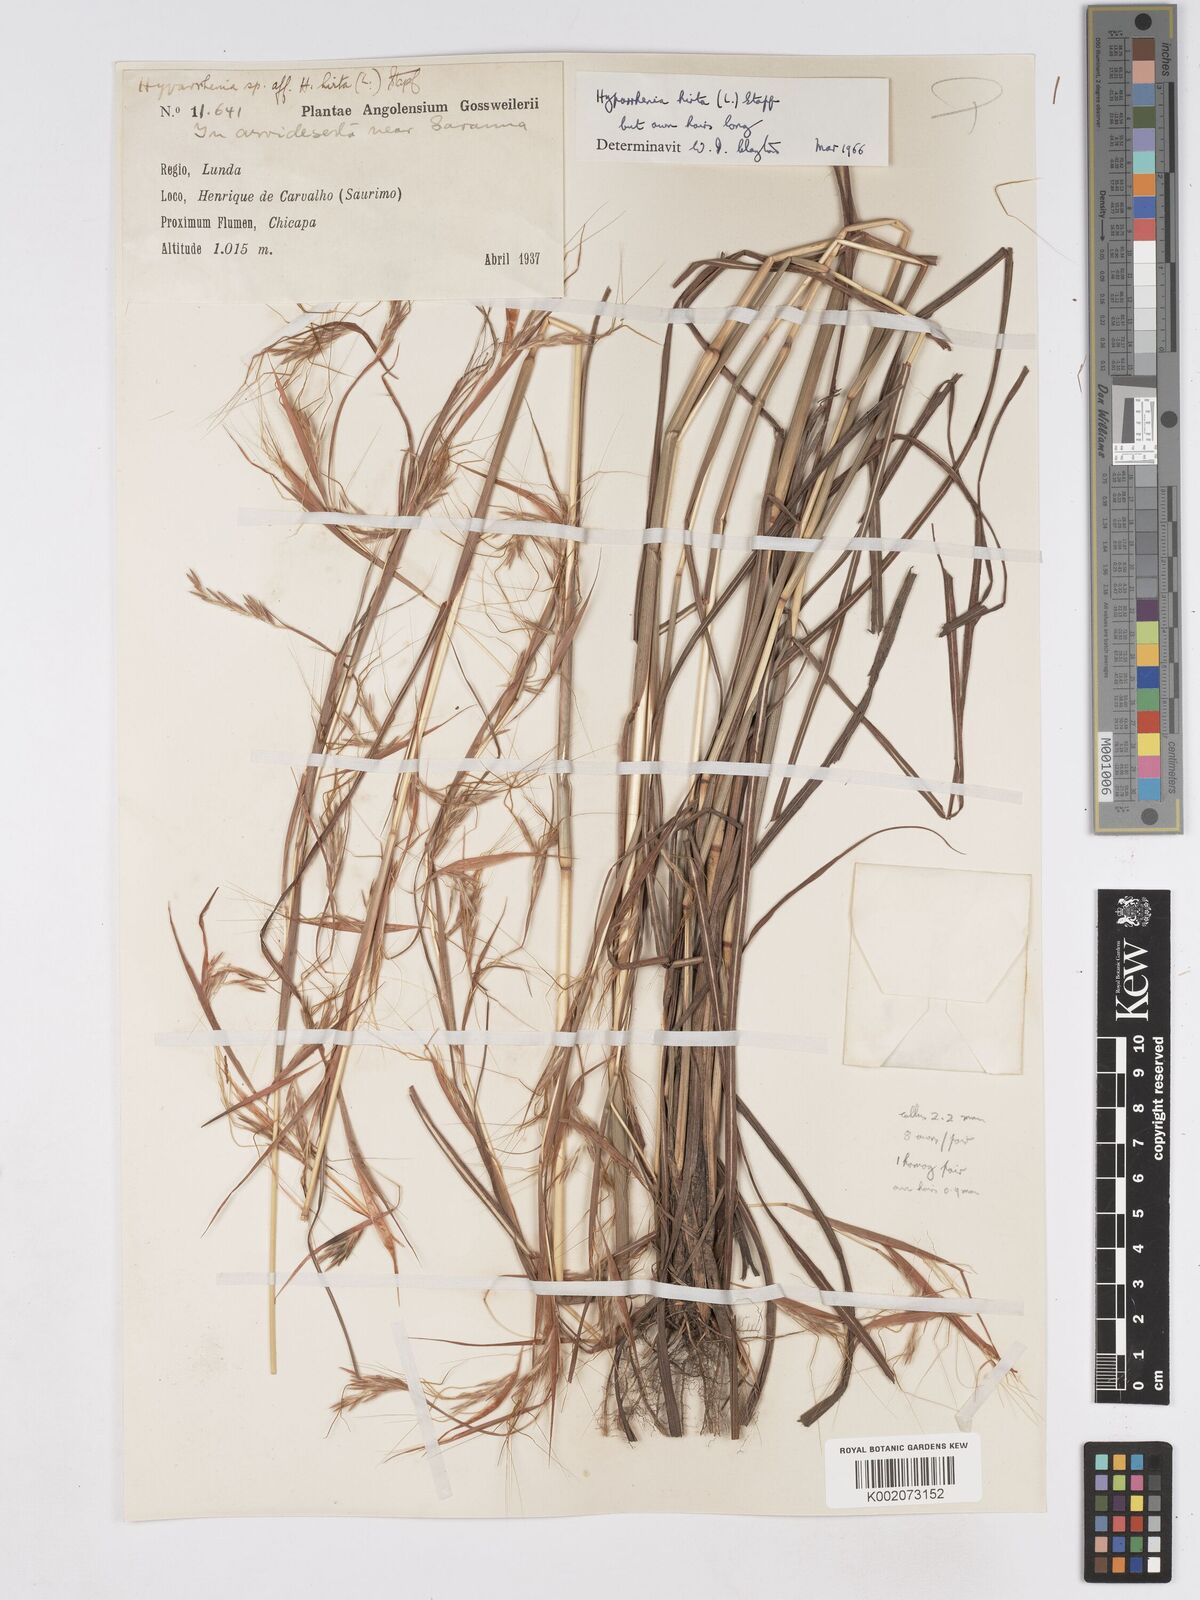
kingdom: Plantae
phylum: Tracheophyta
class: Liliopsida
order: Poales
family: Poaceae
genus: Hyparrhenia
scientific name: Hyparrhenia hirta
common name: Thatching grass
